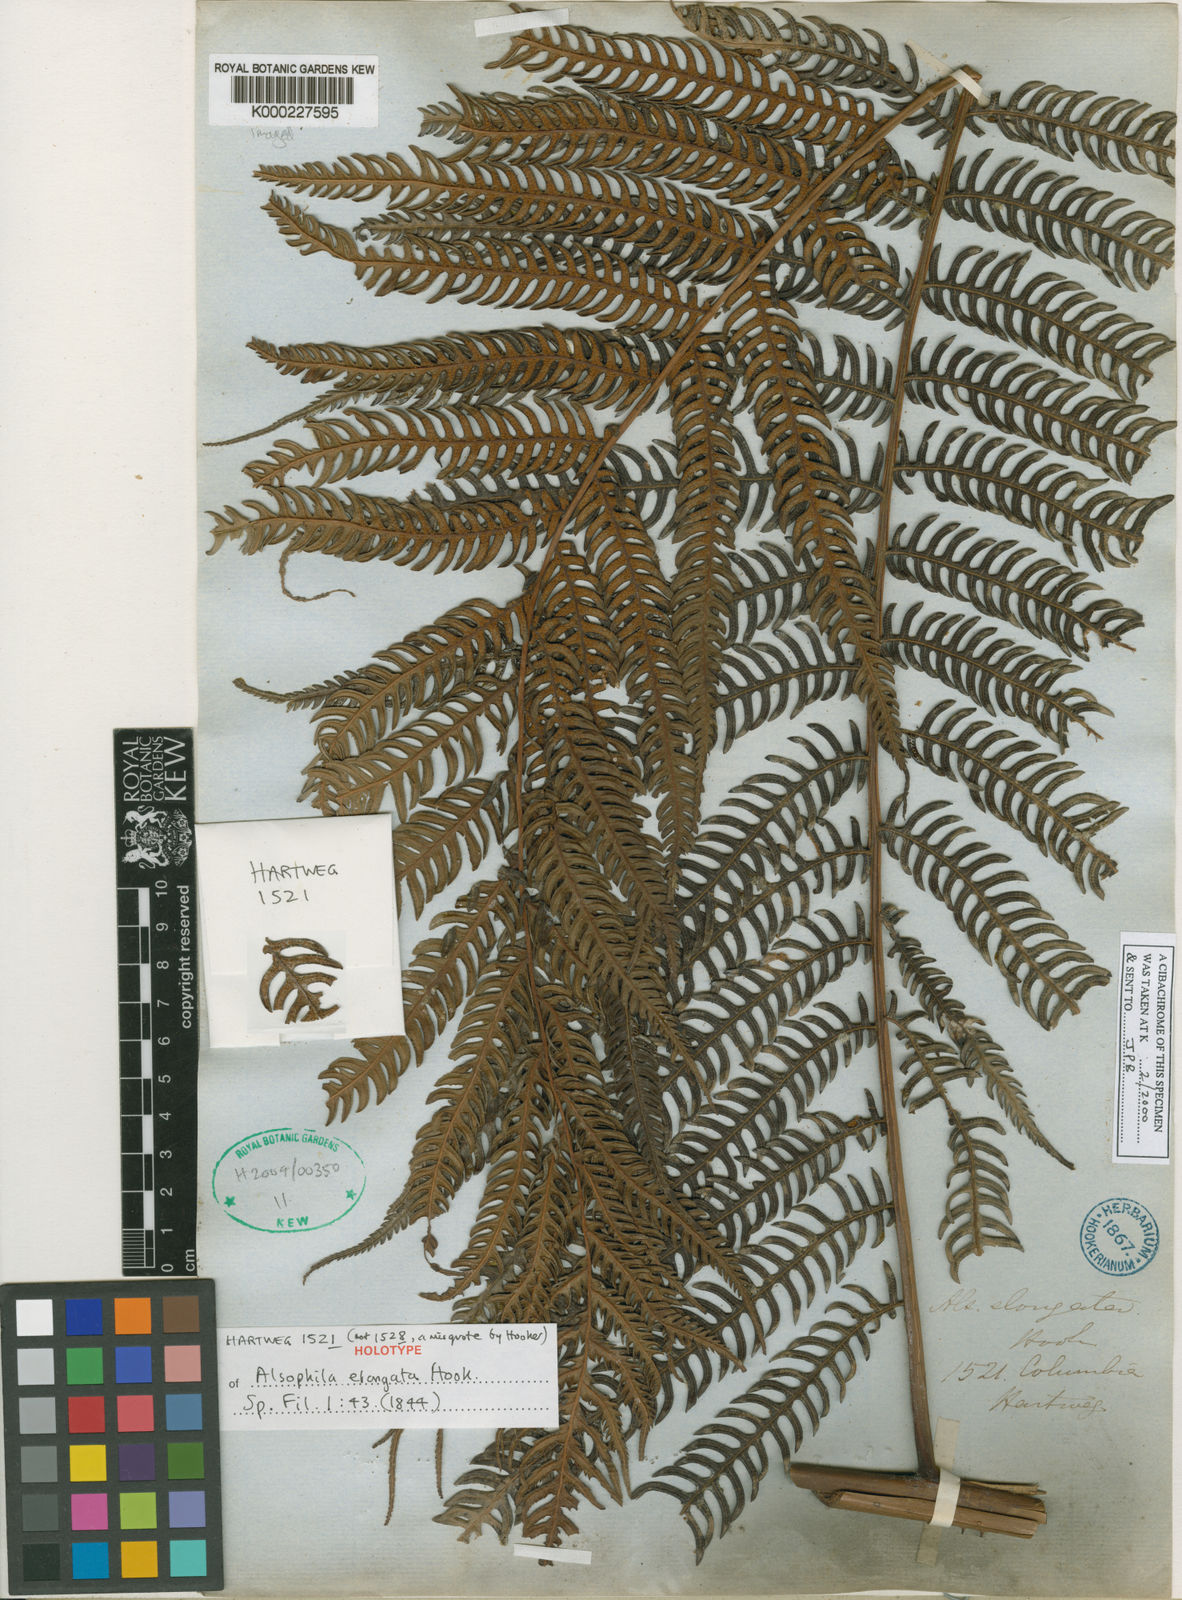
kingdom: Plantae
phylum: Tracheophyta
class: Polypodiopsida
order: Cyatheales
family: Cyatheaceae
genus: Alsophila
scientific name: Alsophila engelii
